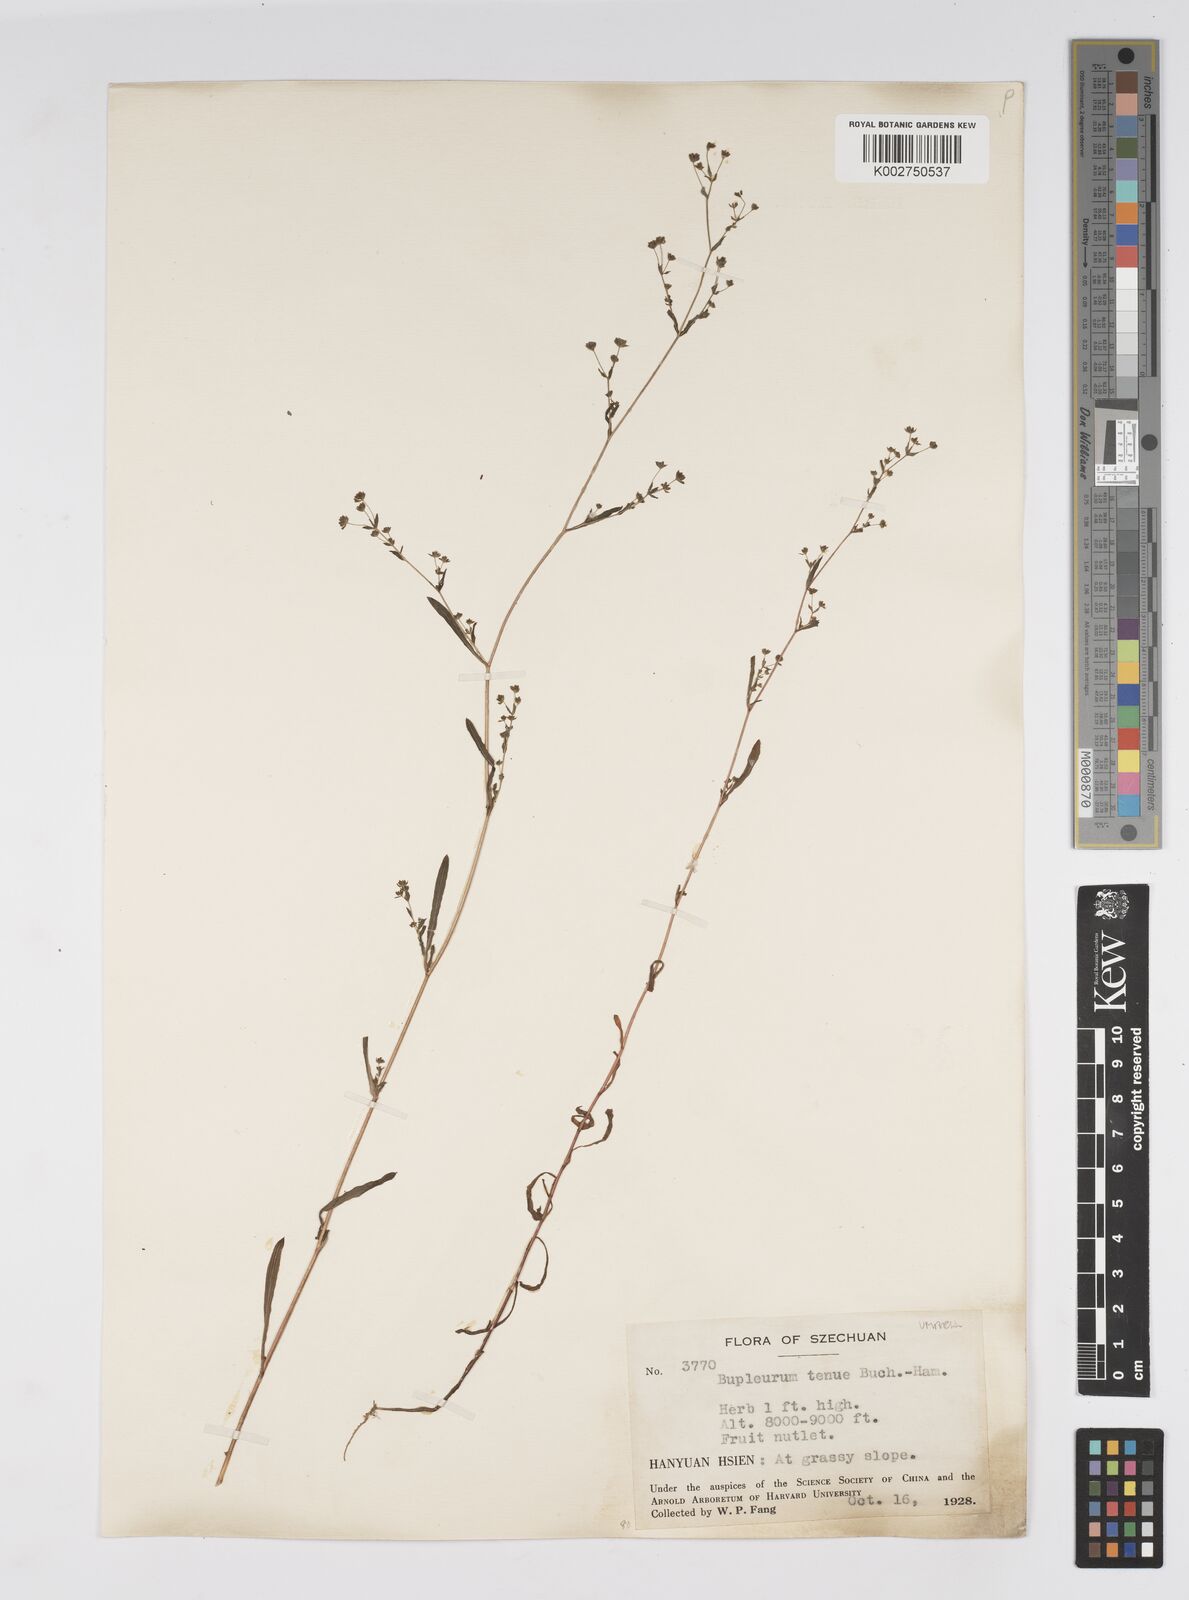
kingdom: Plantae
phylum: Tracheophyta
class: Magnoliopsida
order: Apiales
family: Apiaceae
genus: Bupleurum
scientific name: Bupleurum hamiltonii
